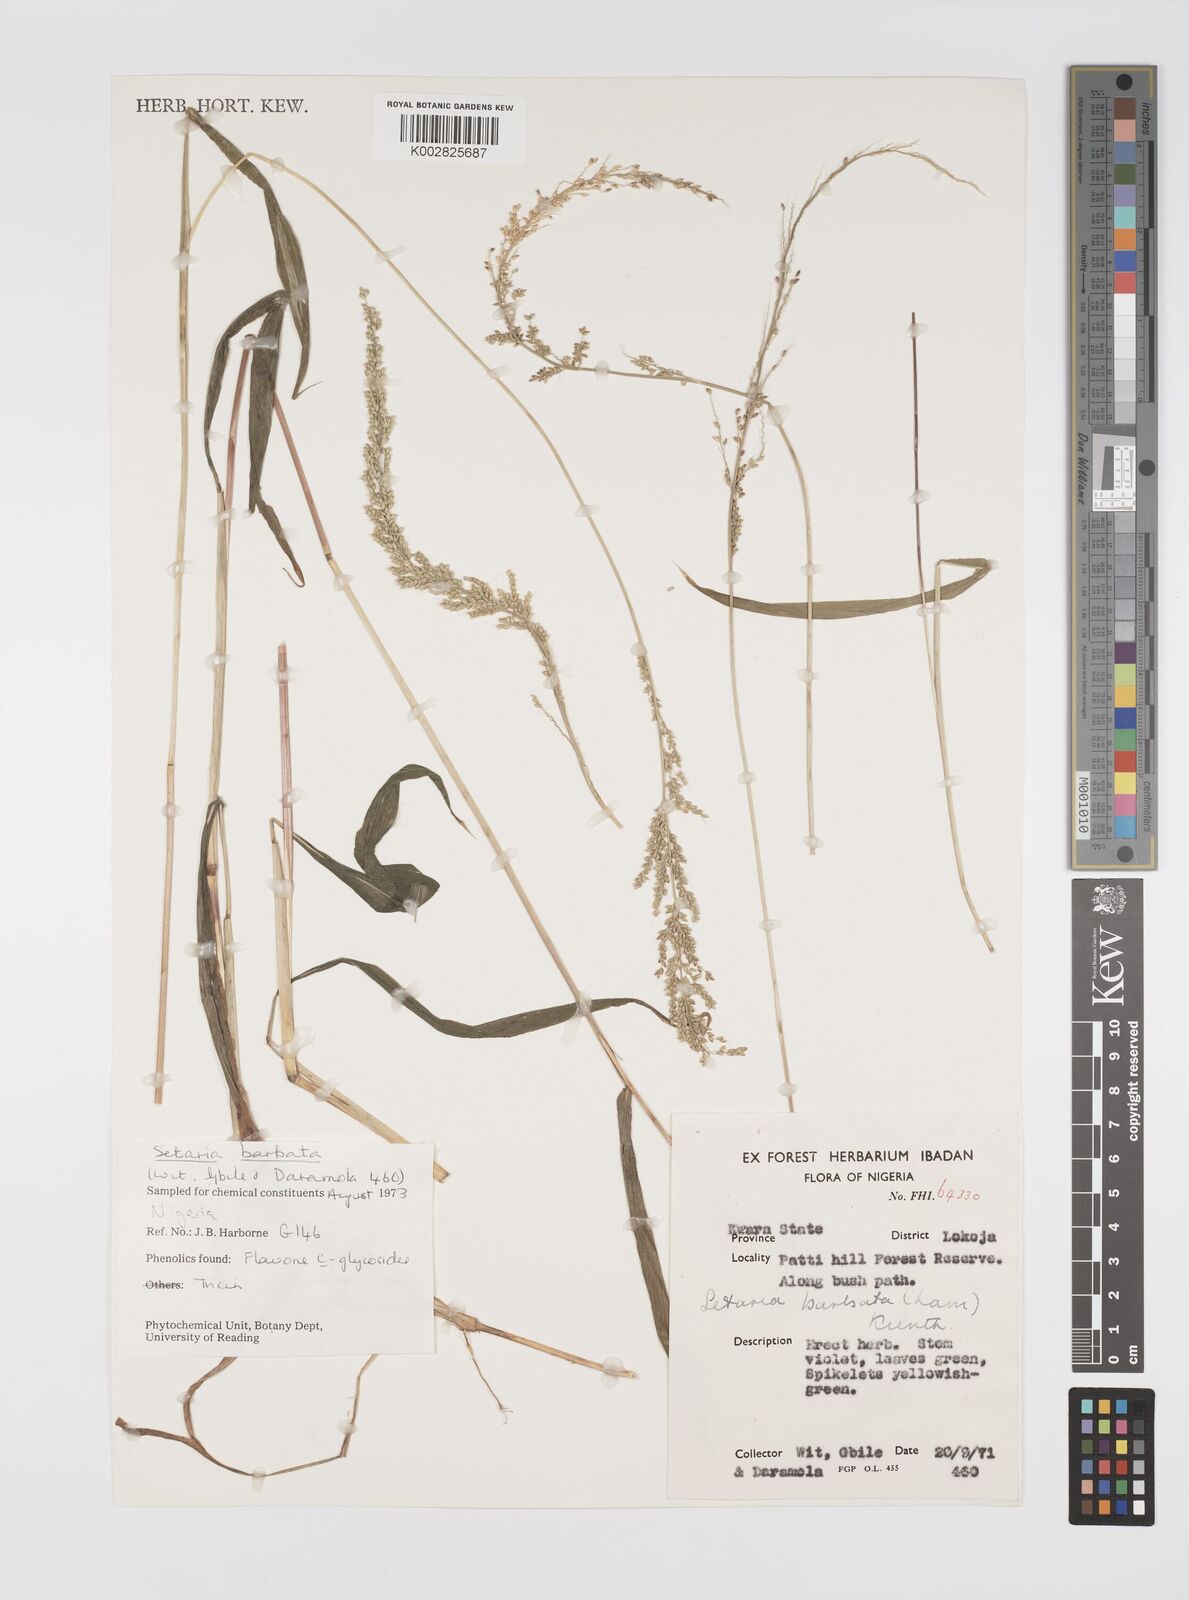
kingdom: Plantae
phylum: Tracheophyta
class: Liliopsida
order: Poales
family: Poaceae
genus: Setaria
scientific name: Setaria barbata
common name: East indian bristlegrass
